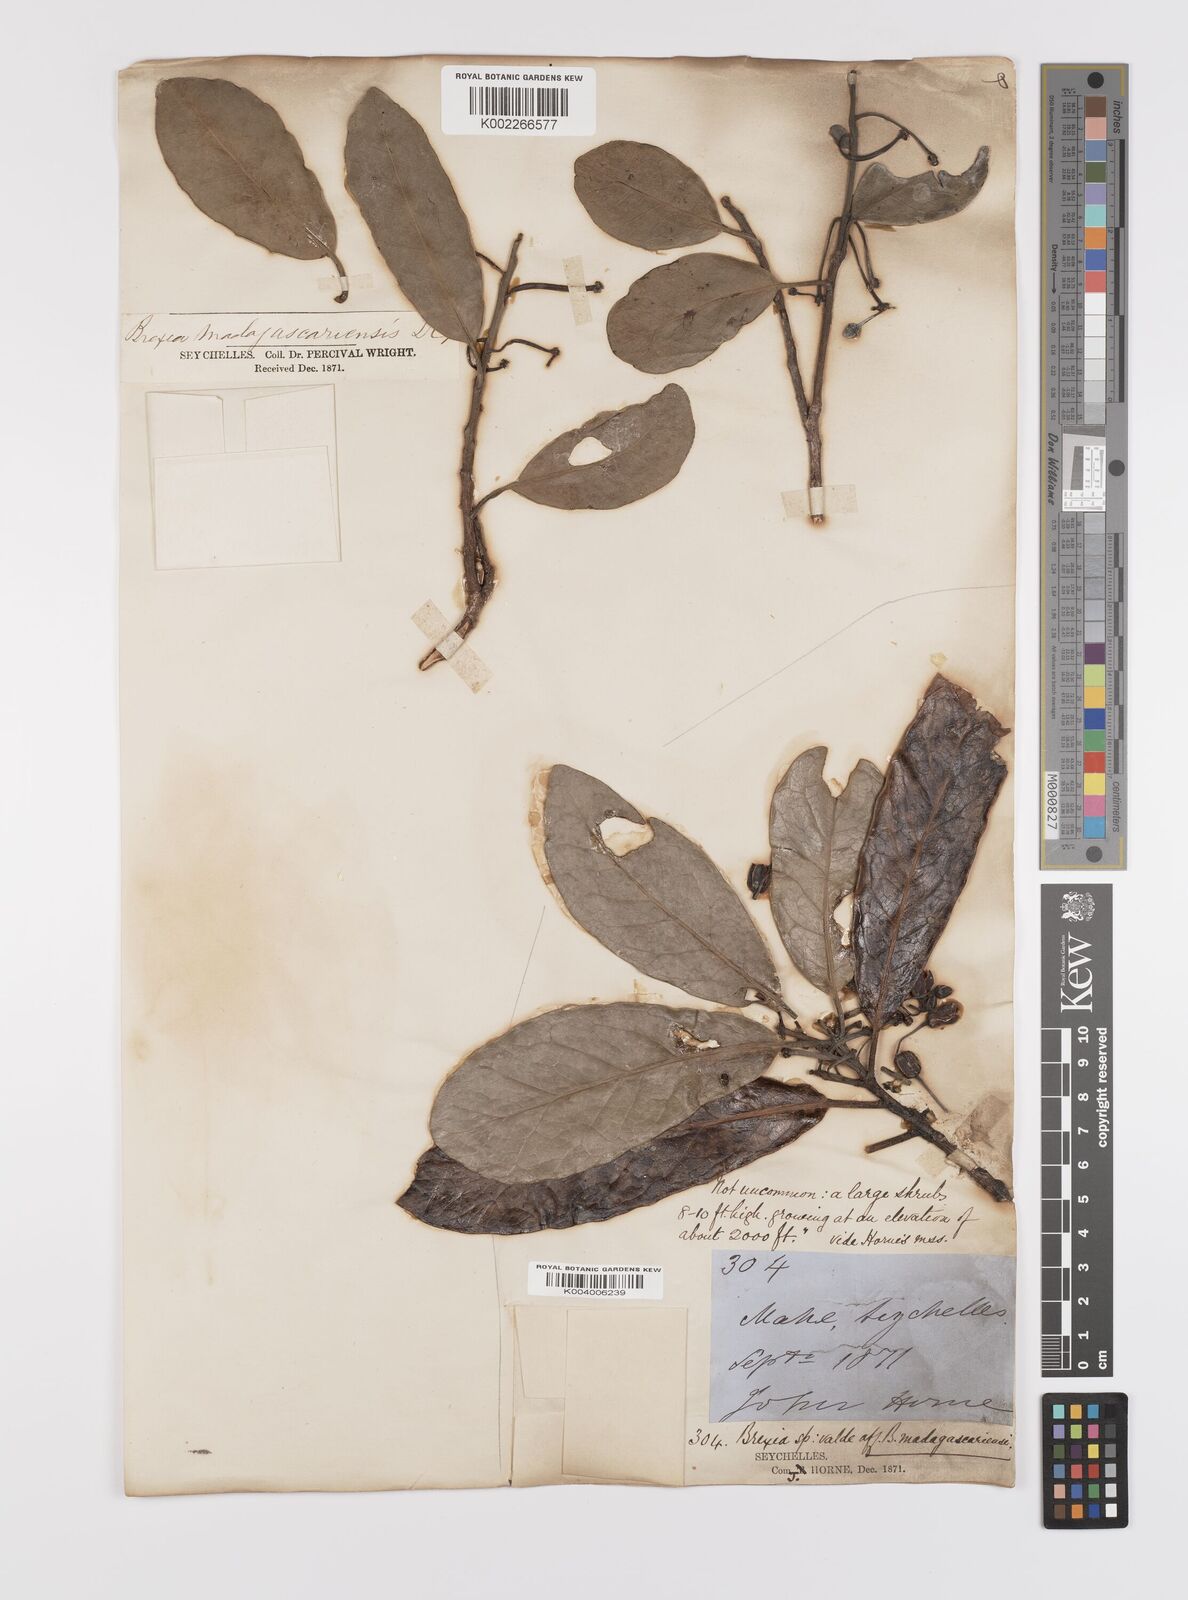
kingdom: Plantae
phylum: Tracheophyta
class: Magnoliopsida
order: Celastrales
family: Celastraceae
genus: Brexia
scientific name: Brexia madagascariensis
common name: Brexia
